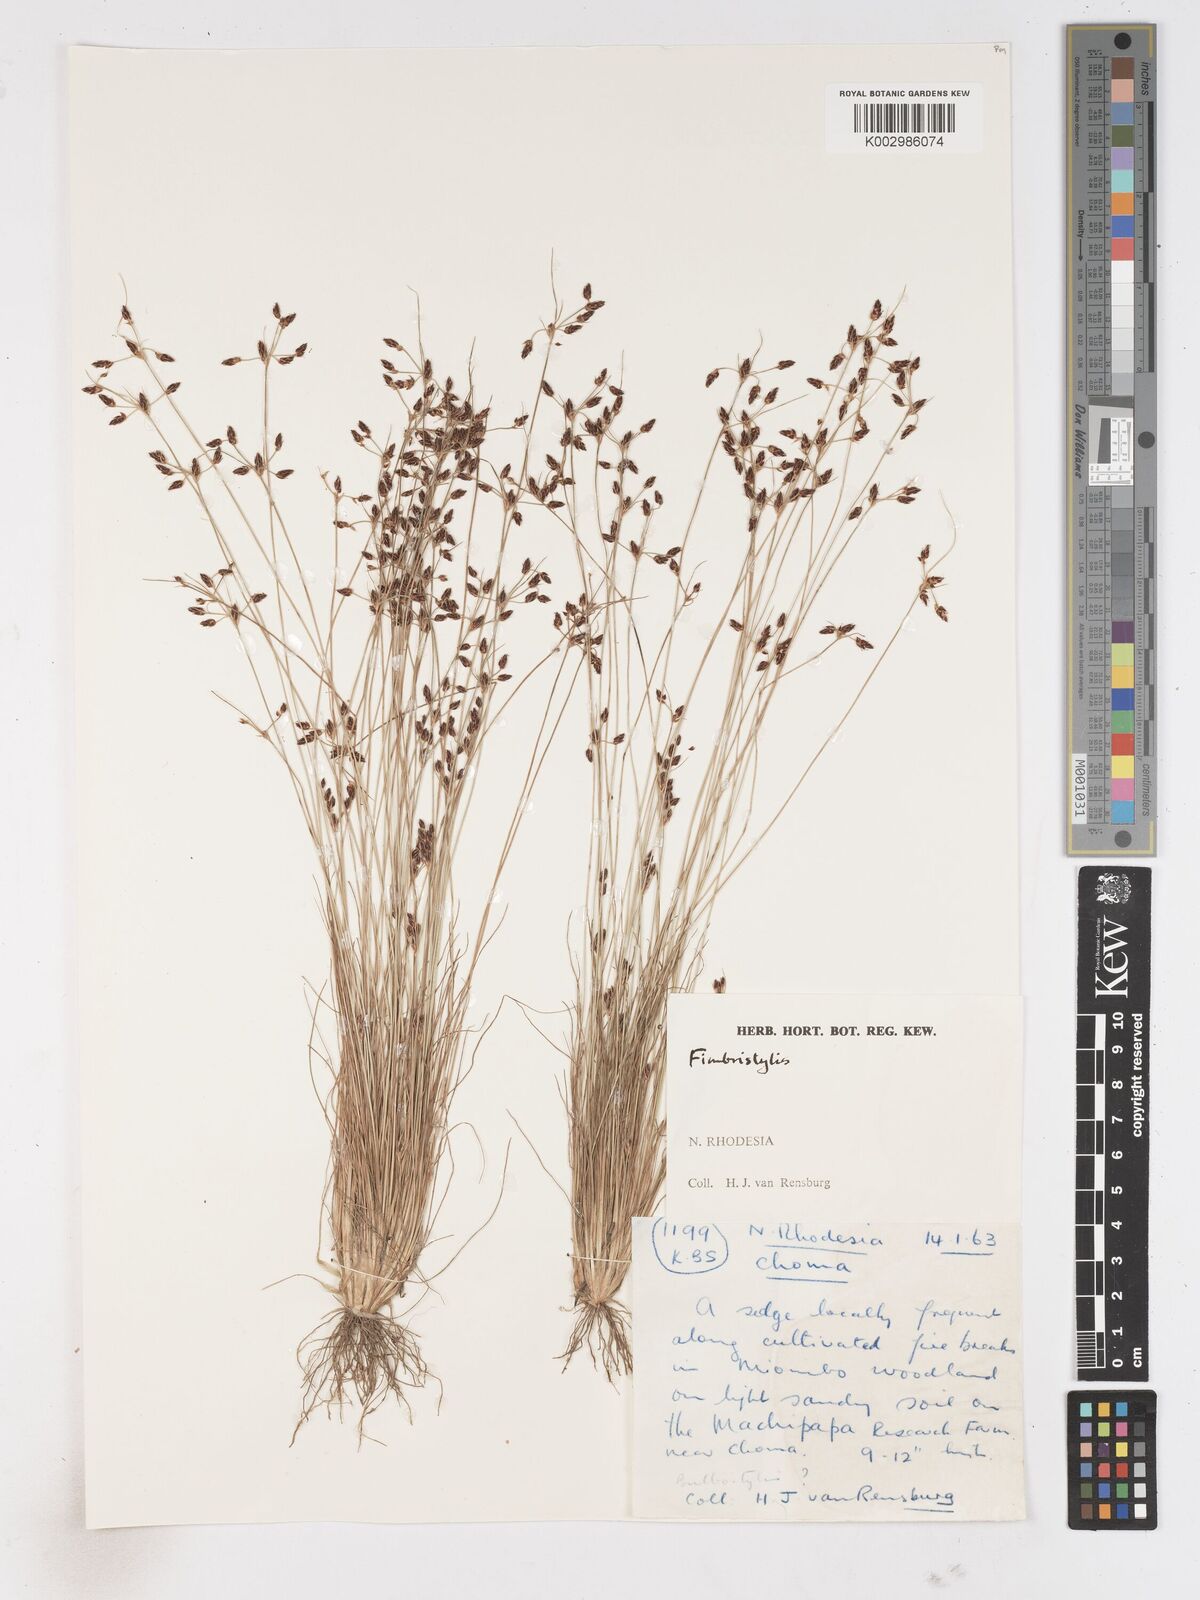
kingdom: Plantae
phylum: Tracheophyta
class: Liliopsida
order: Poales
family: Cyperaceae
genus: Fimbristylis
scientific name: Fimbristylis
